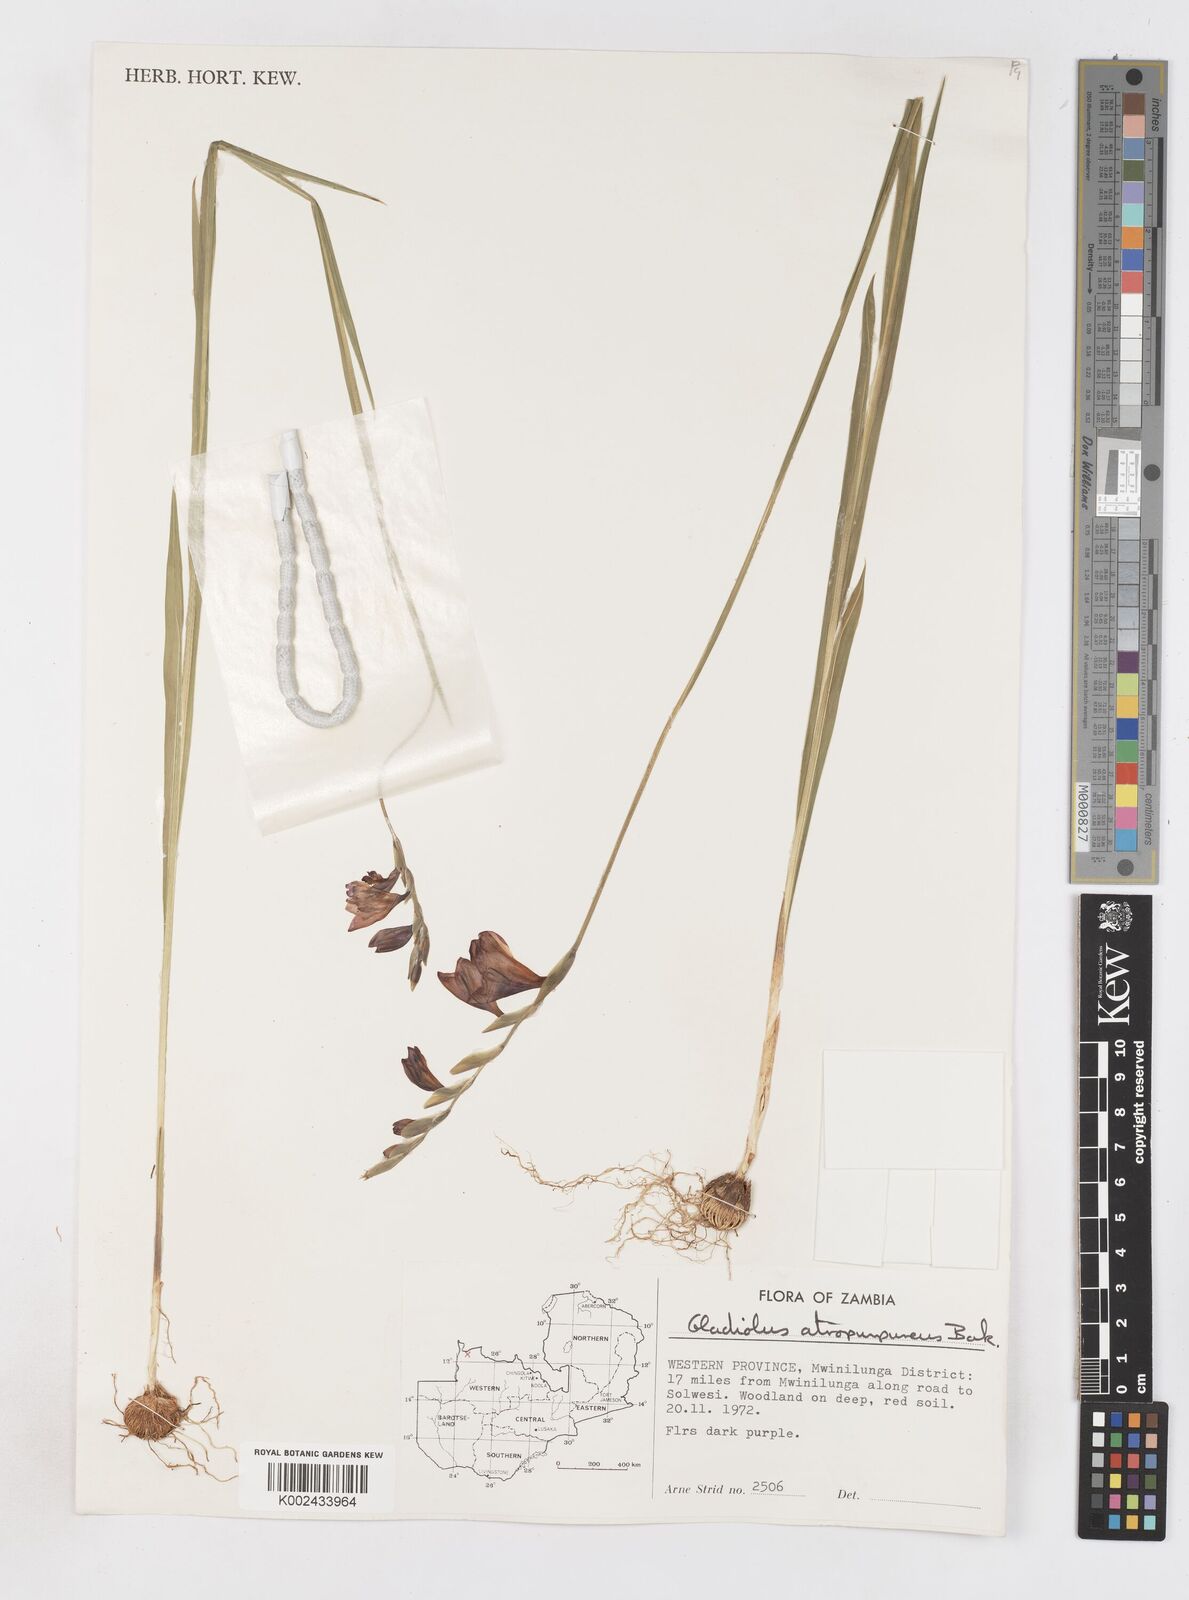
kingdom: Plantae
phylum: Tracheophyta
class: Liliopsida
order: Asparagales
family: Iridaceae
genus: Gladiolus
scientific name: Gladiolus atropurpureus
